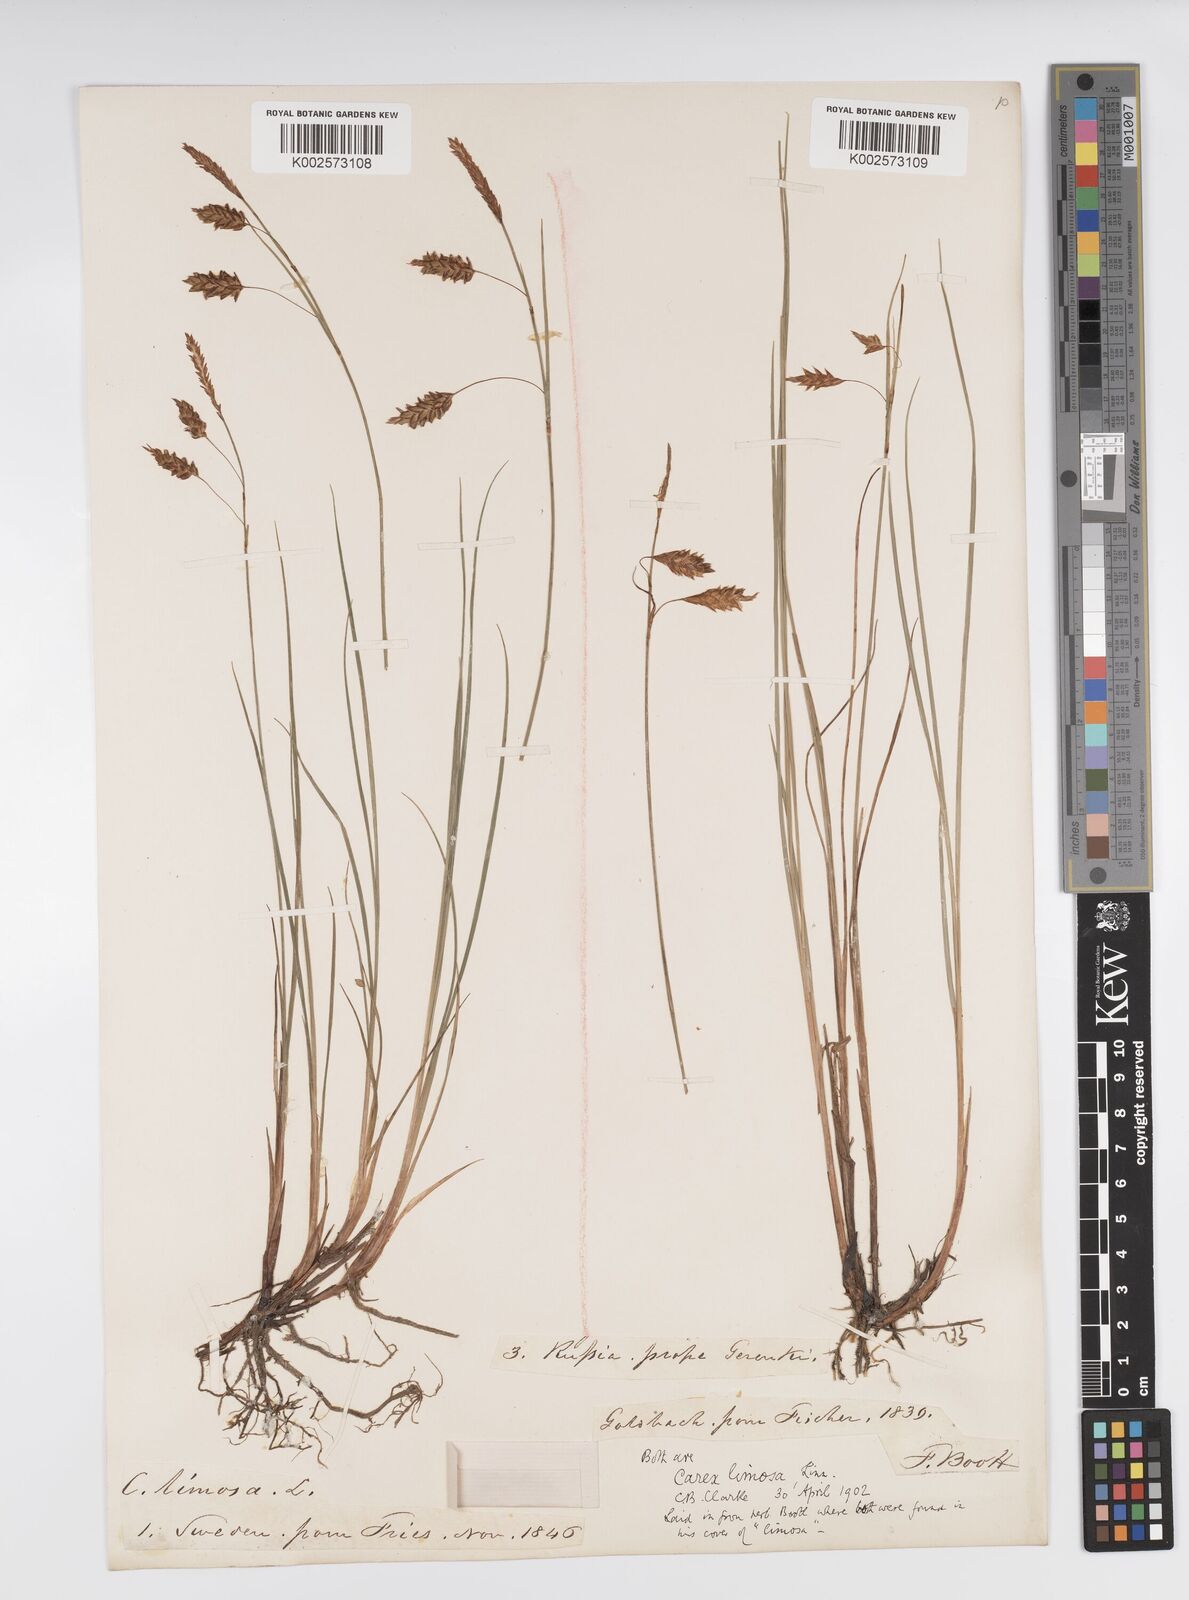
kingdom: Plantae
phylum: Tracheophyta
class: Liliopsida
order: Poales
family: Cyperaceae
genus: Carex
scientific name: Carex limosa
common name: Bog sedge
